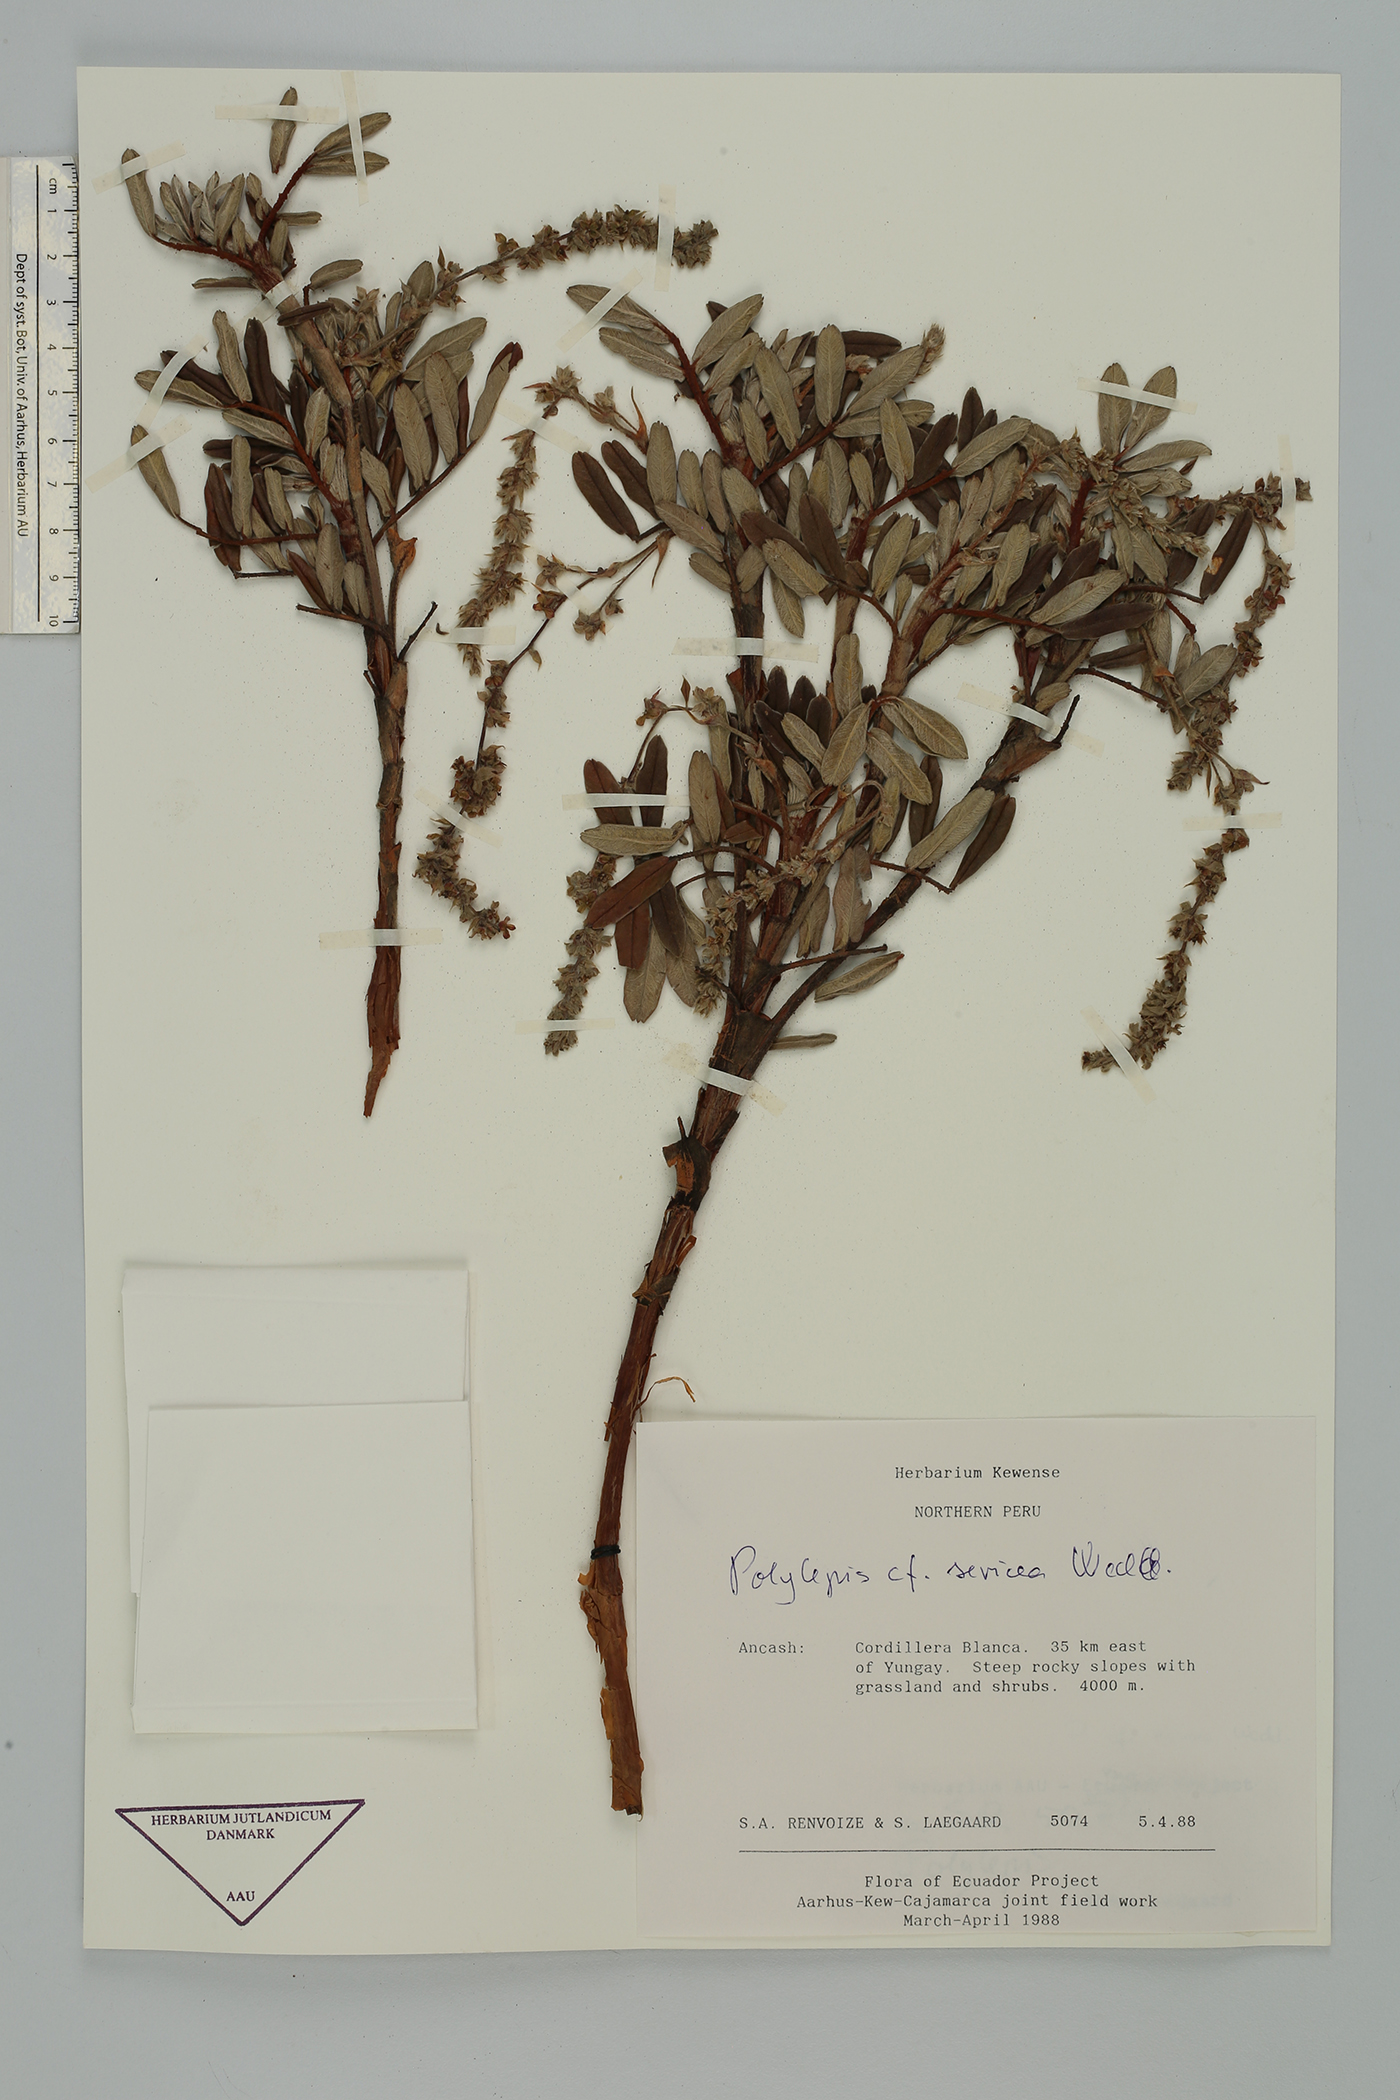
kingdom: Plantae
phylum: Tracheophyta
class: Magnoliopsida
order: Rosales
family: Rosaceae
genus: Polylepis
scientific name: Polylepis sericea
